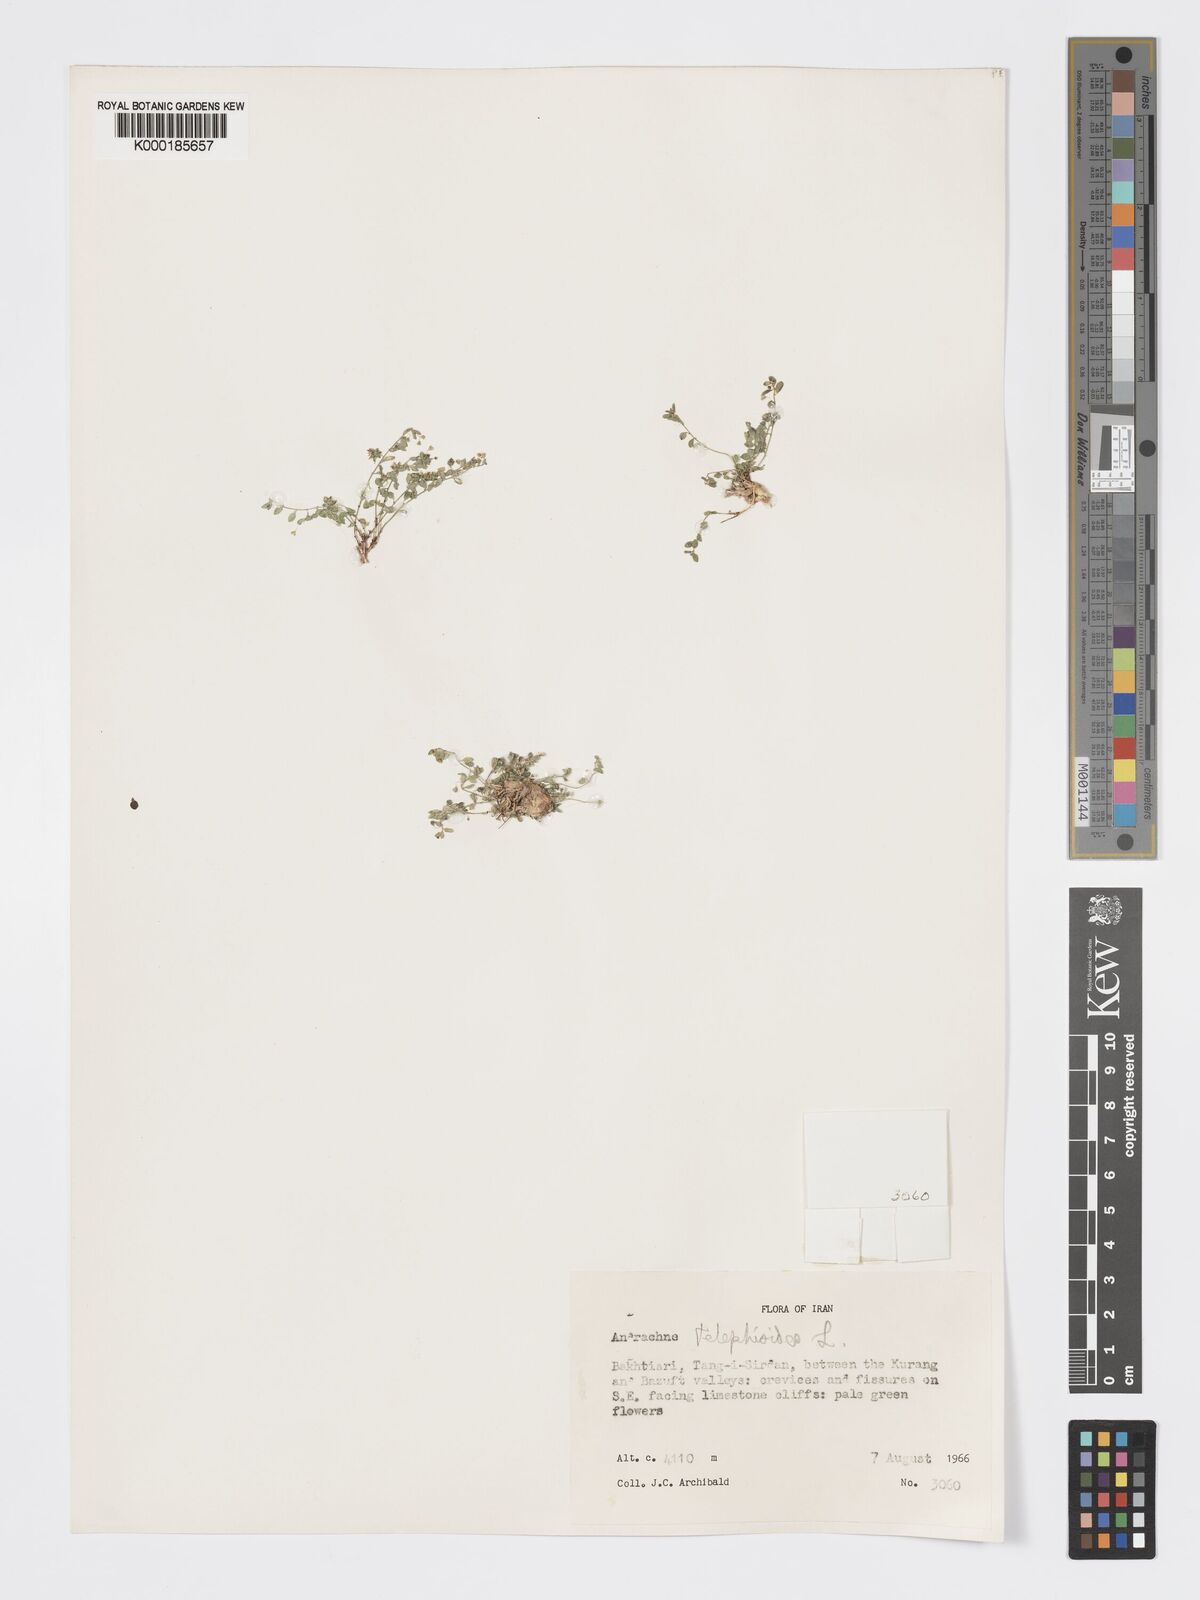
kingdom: Plantae
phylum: Tracheophyta
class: Magnoliopsida
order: Malpighiales
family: Phyllanthaceae
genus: Andrachne
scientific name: Andrachne telephioides
